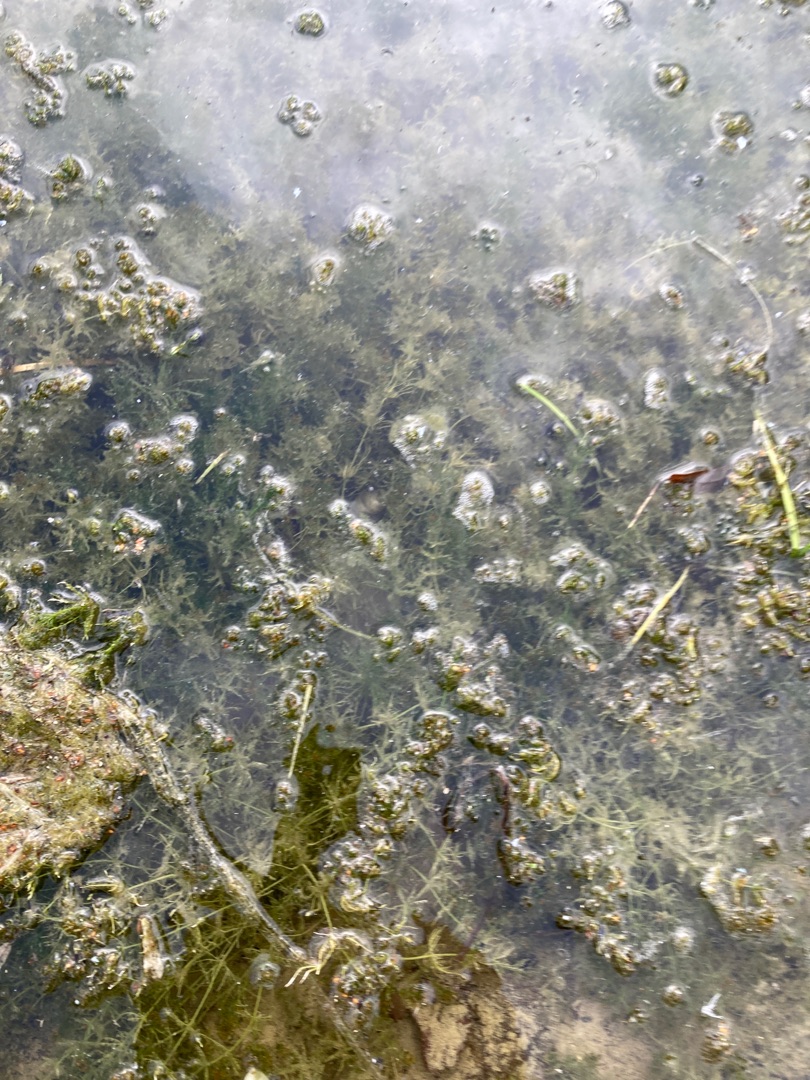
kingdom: Plantae
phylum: Charophyta
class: Charophyceae
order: Charales
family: Characeae
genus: Chara
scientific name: Chara
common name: Kransnålalgeslægten
